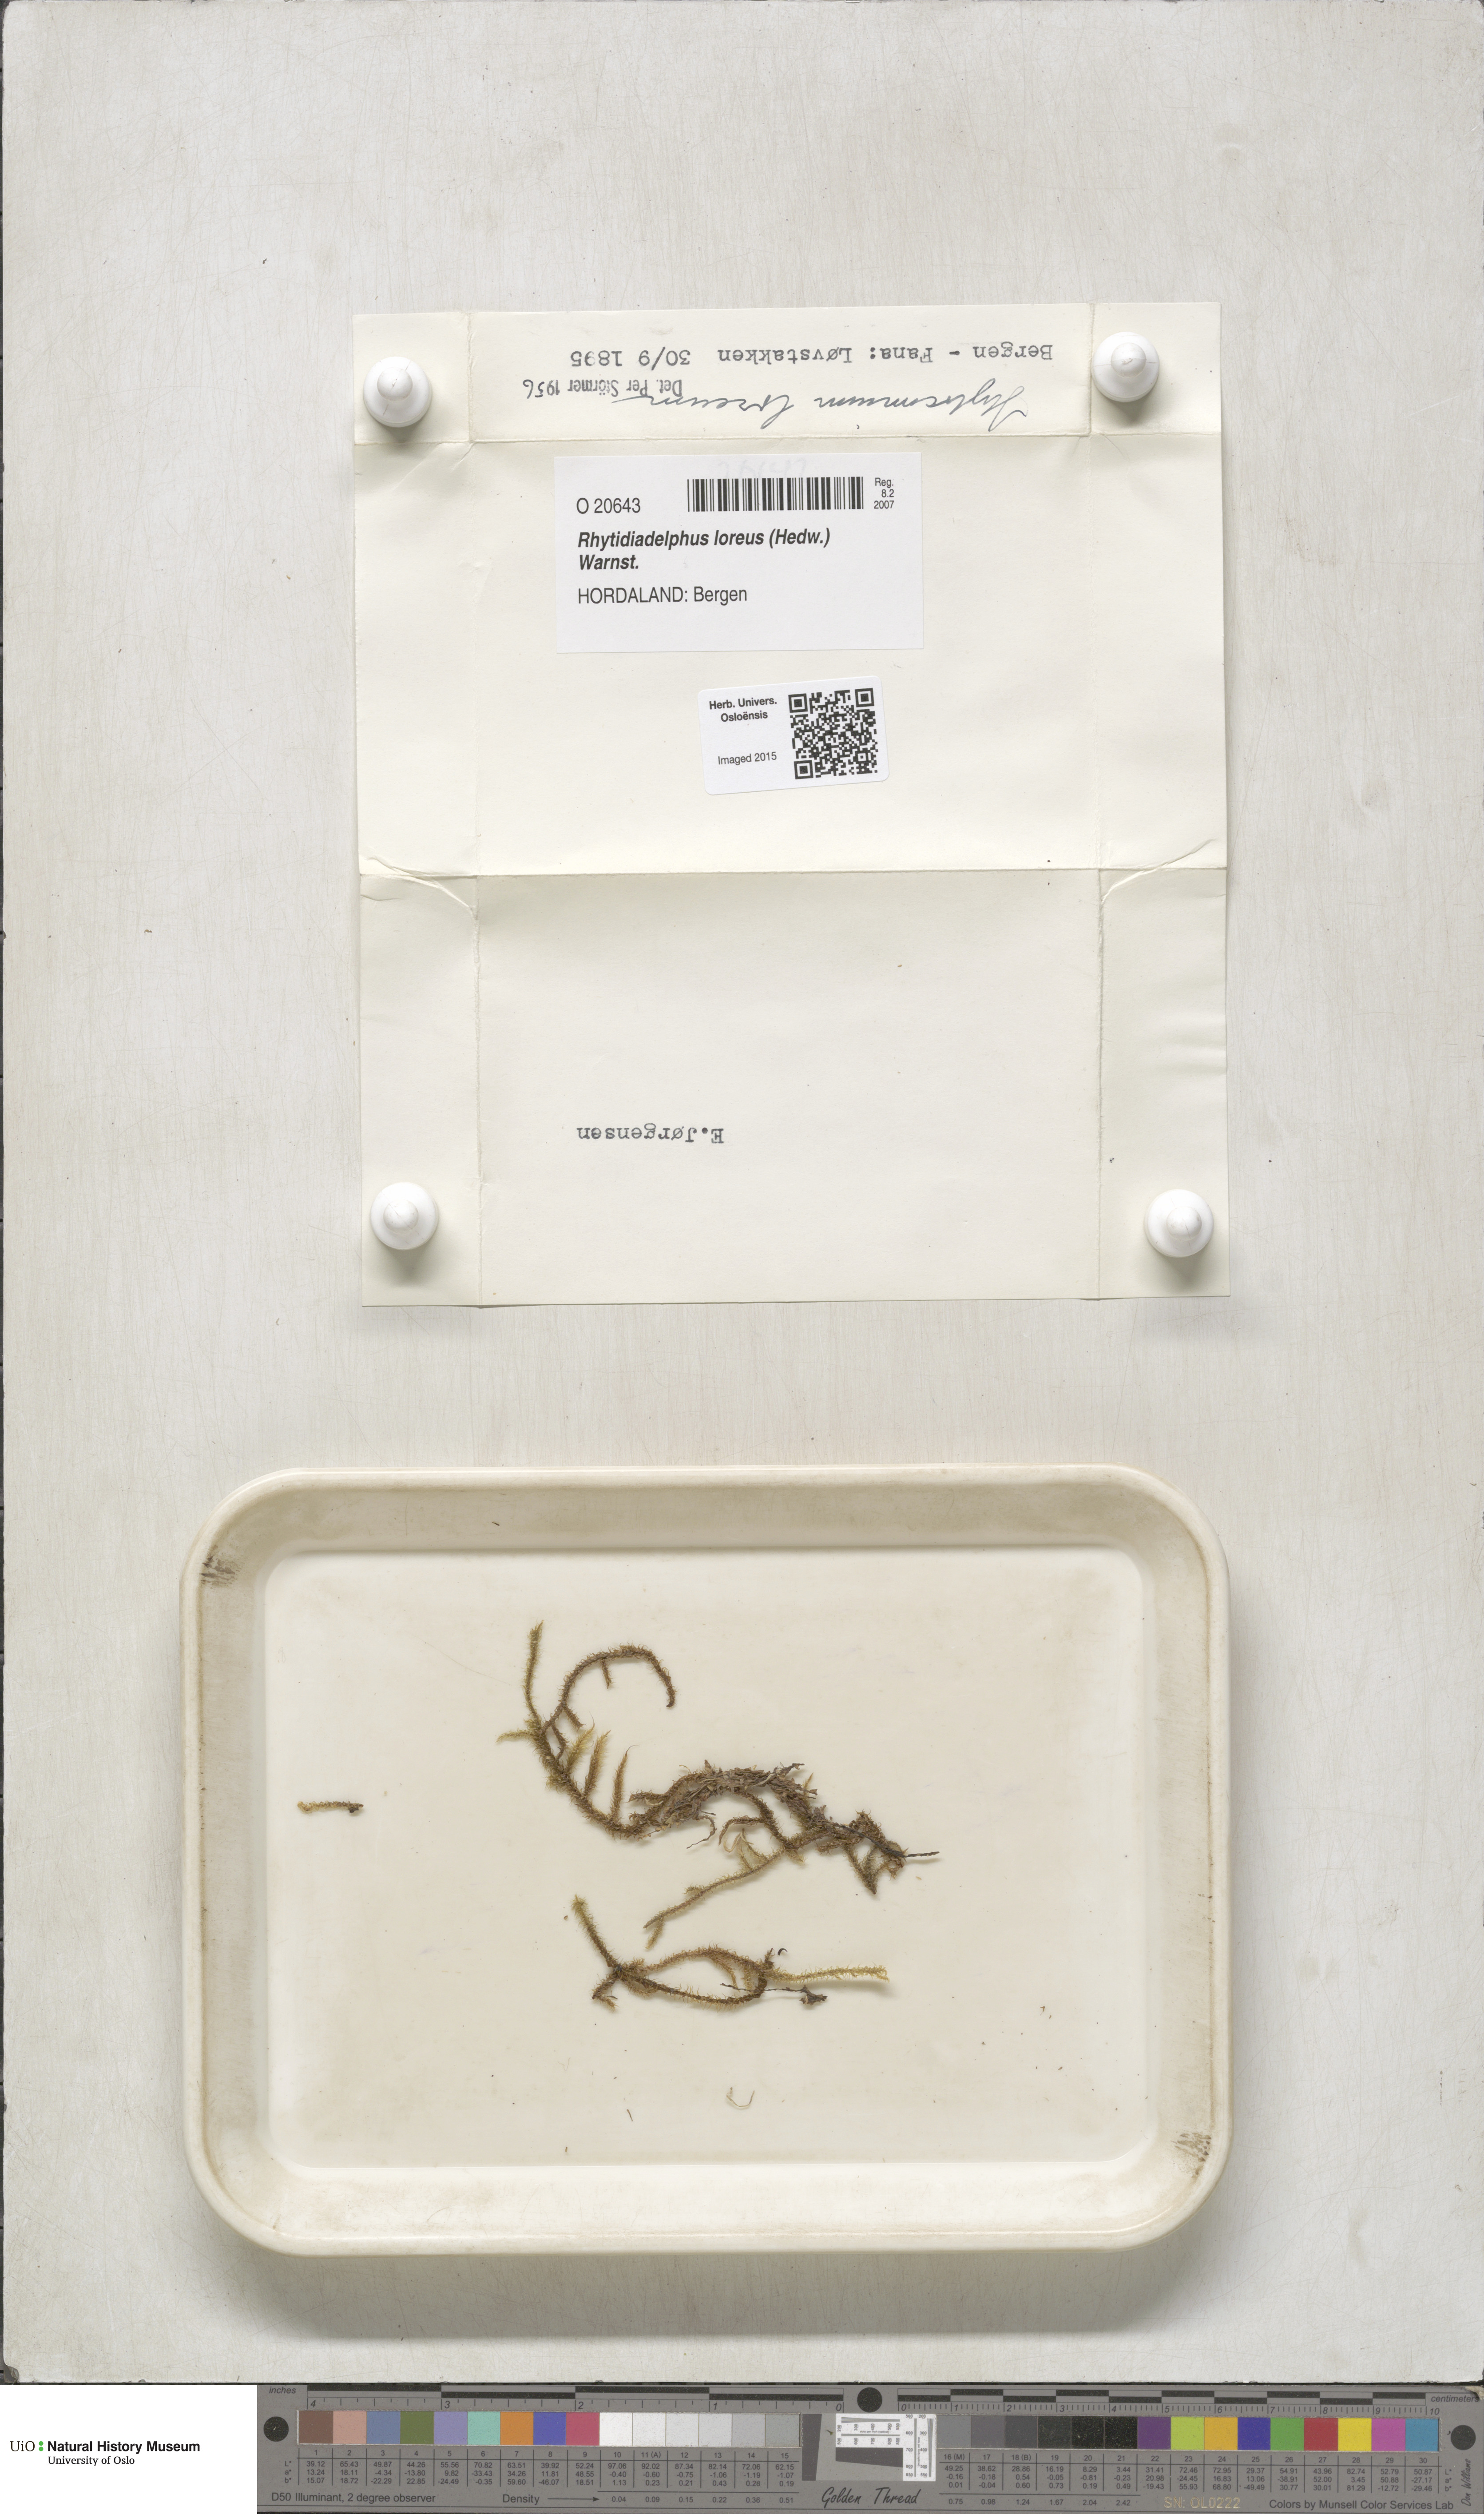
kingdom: Plantae
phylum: Bryophyta
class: Bryopsida
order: Hypnales
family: Hylocomiaceae
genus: Rhytidiadelphus
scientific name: Rhytidiadelphus loreus
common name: Lanky moss
